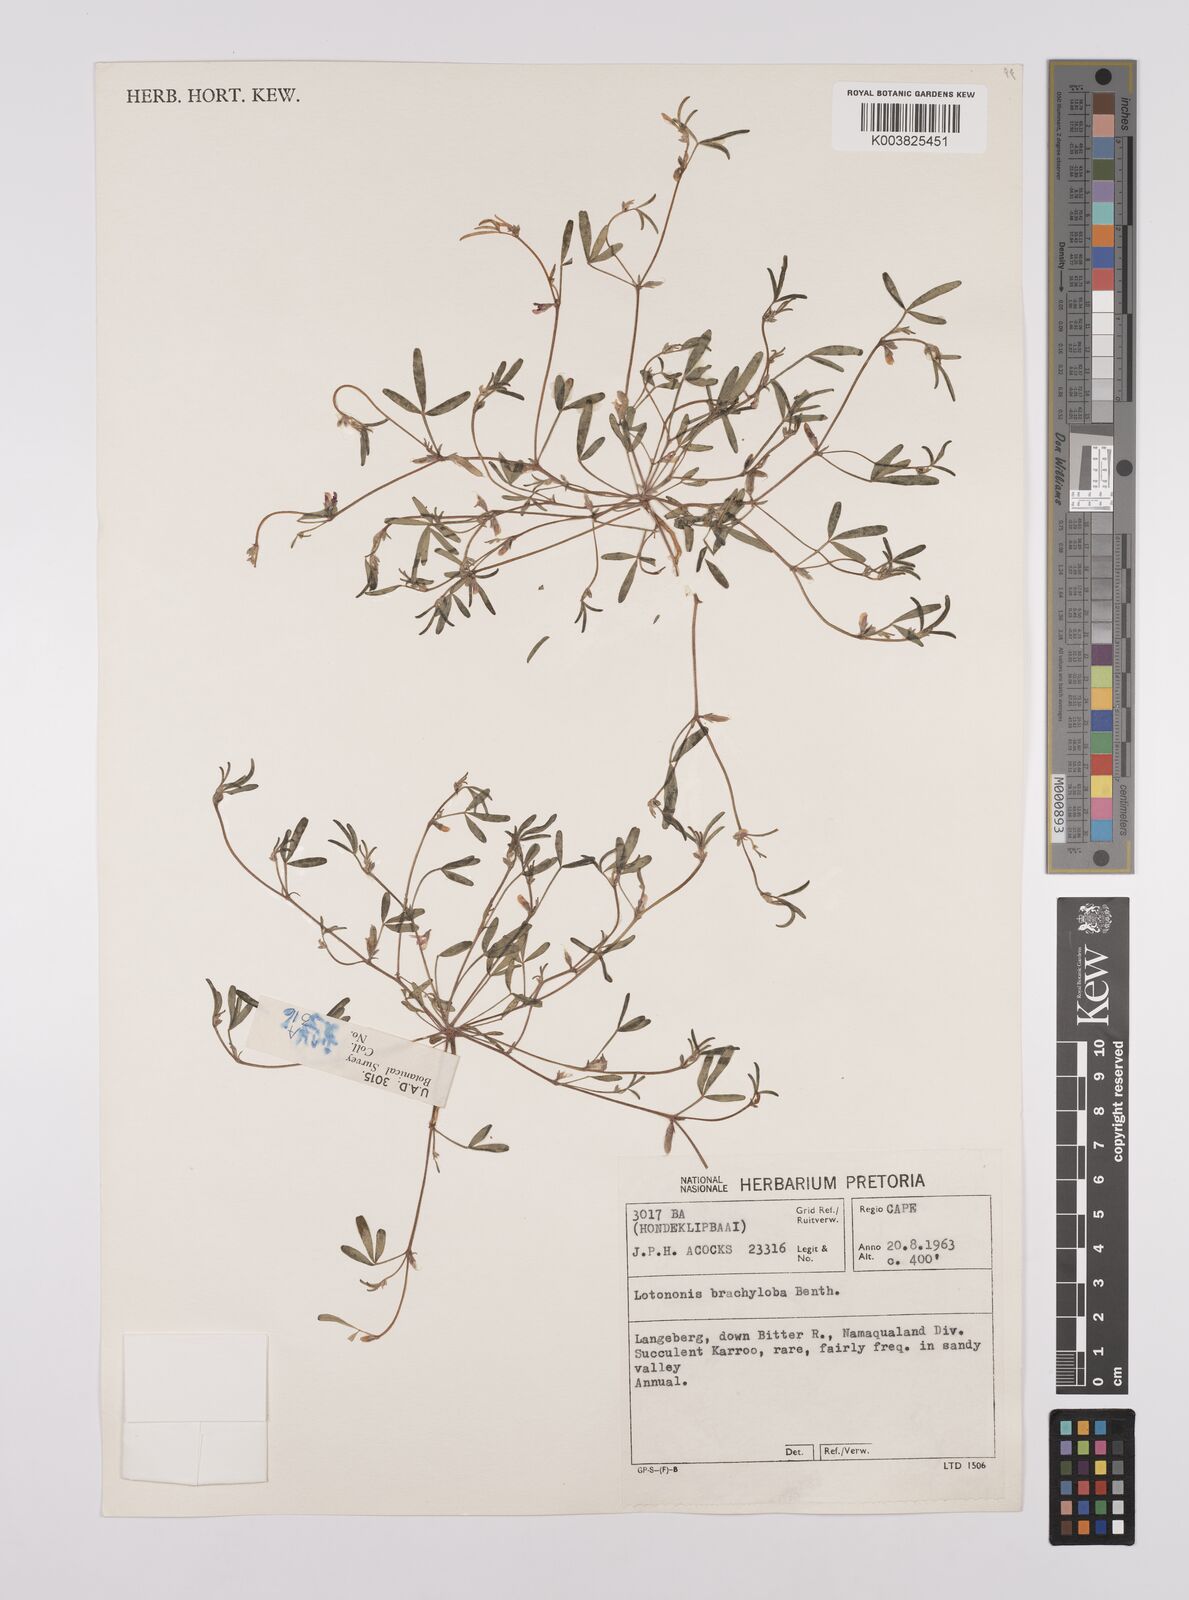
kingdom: Plantae
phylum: Tracheophyta
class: Magnoliopsida
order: Fabales
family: Fabaceae
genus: Lotononis
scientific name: Lotononis parviflora
